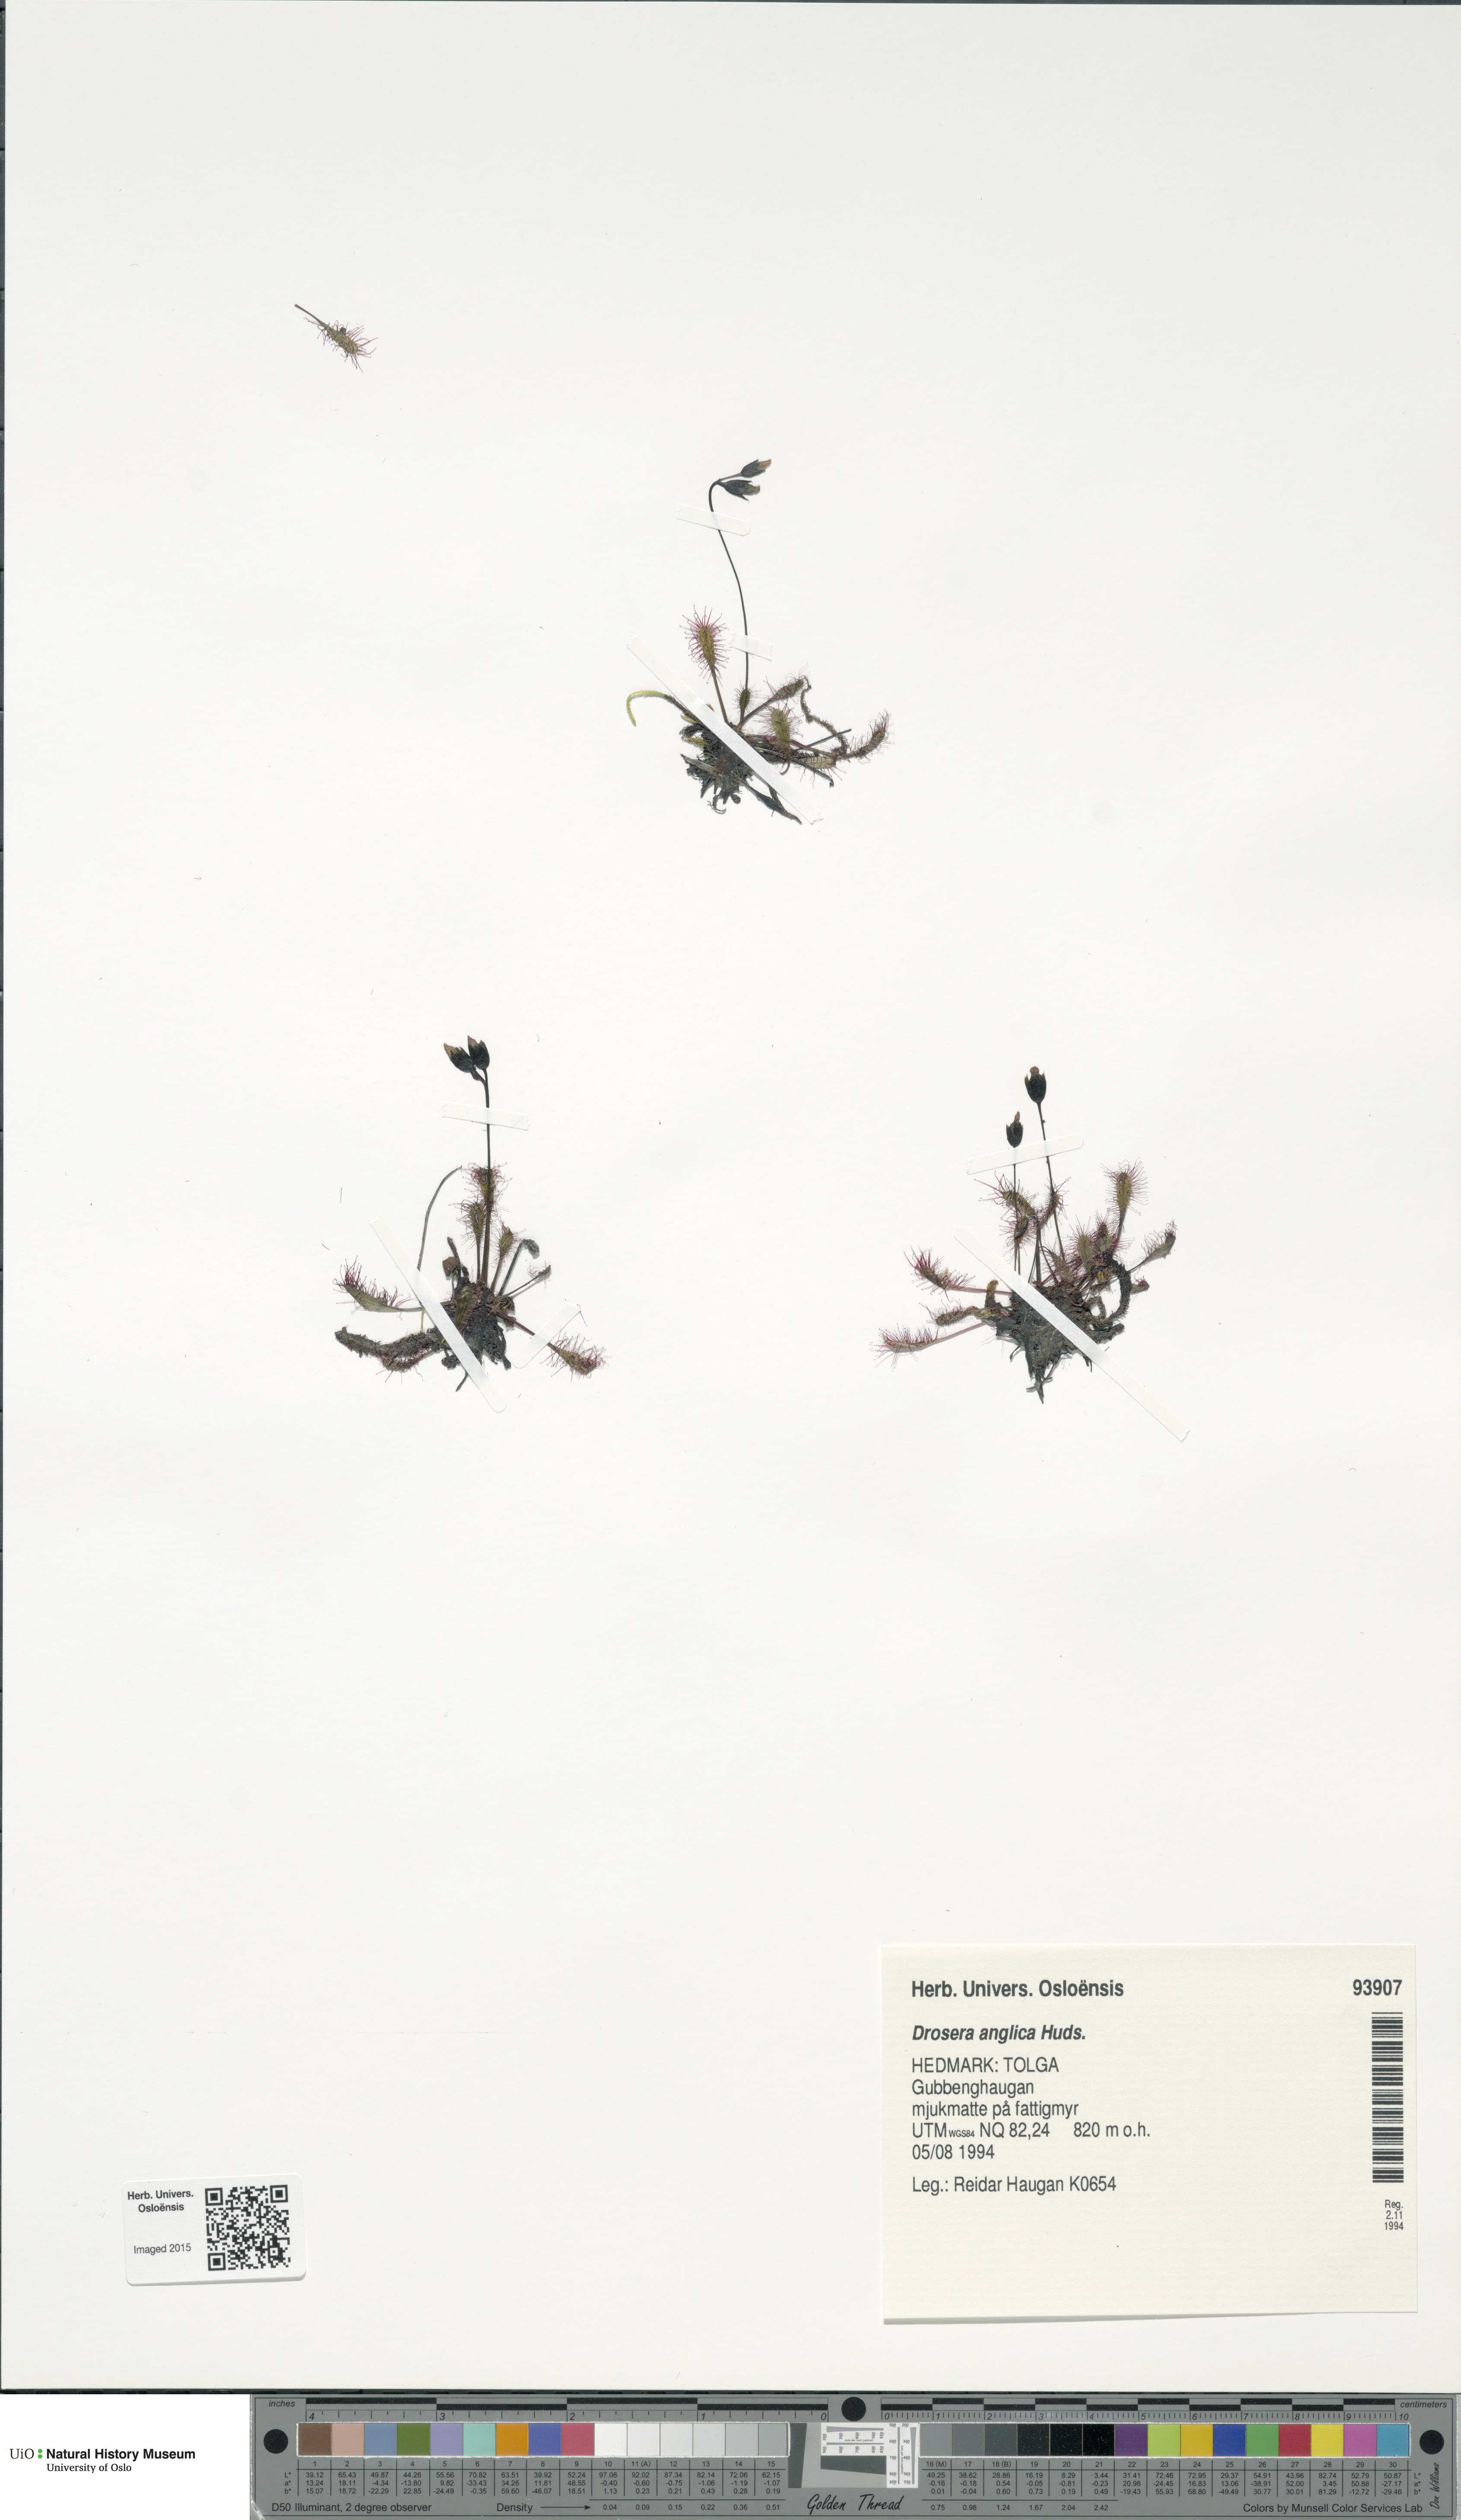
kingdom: Plantae
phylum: Tracheophyta
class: Magnoliopsida
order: Caryophyllales
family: Droseraceae
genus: Drosera
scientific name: Drosera anglica
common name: Great sundew
